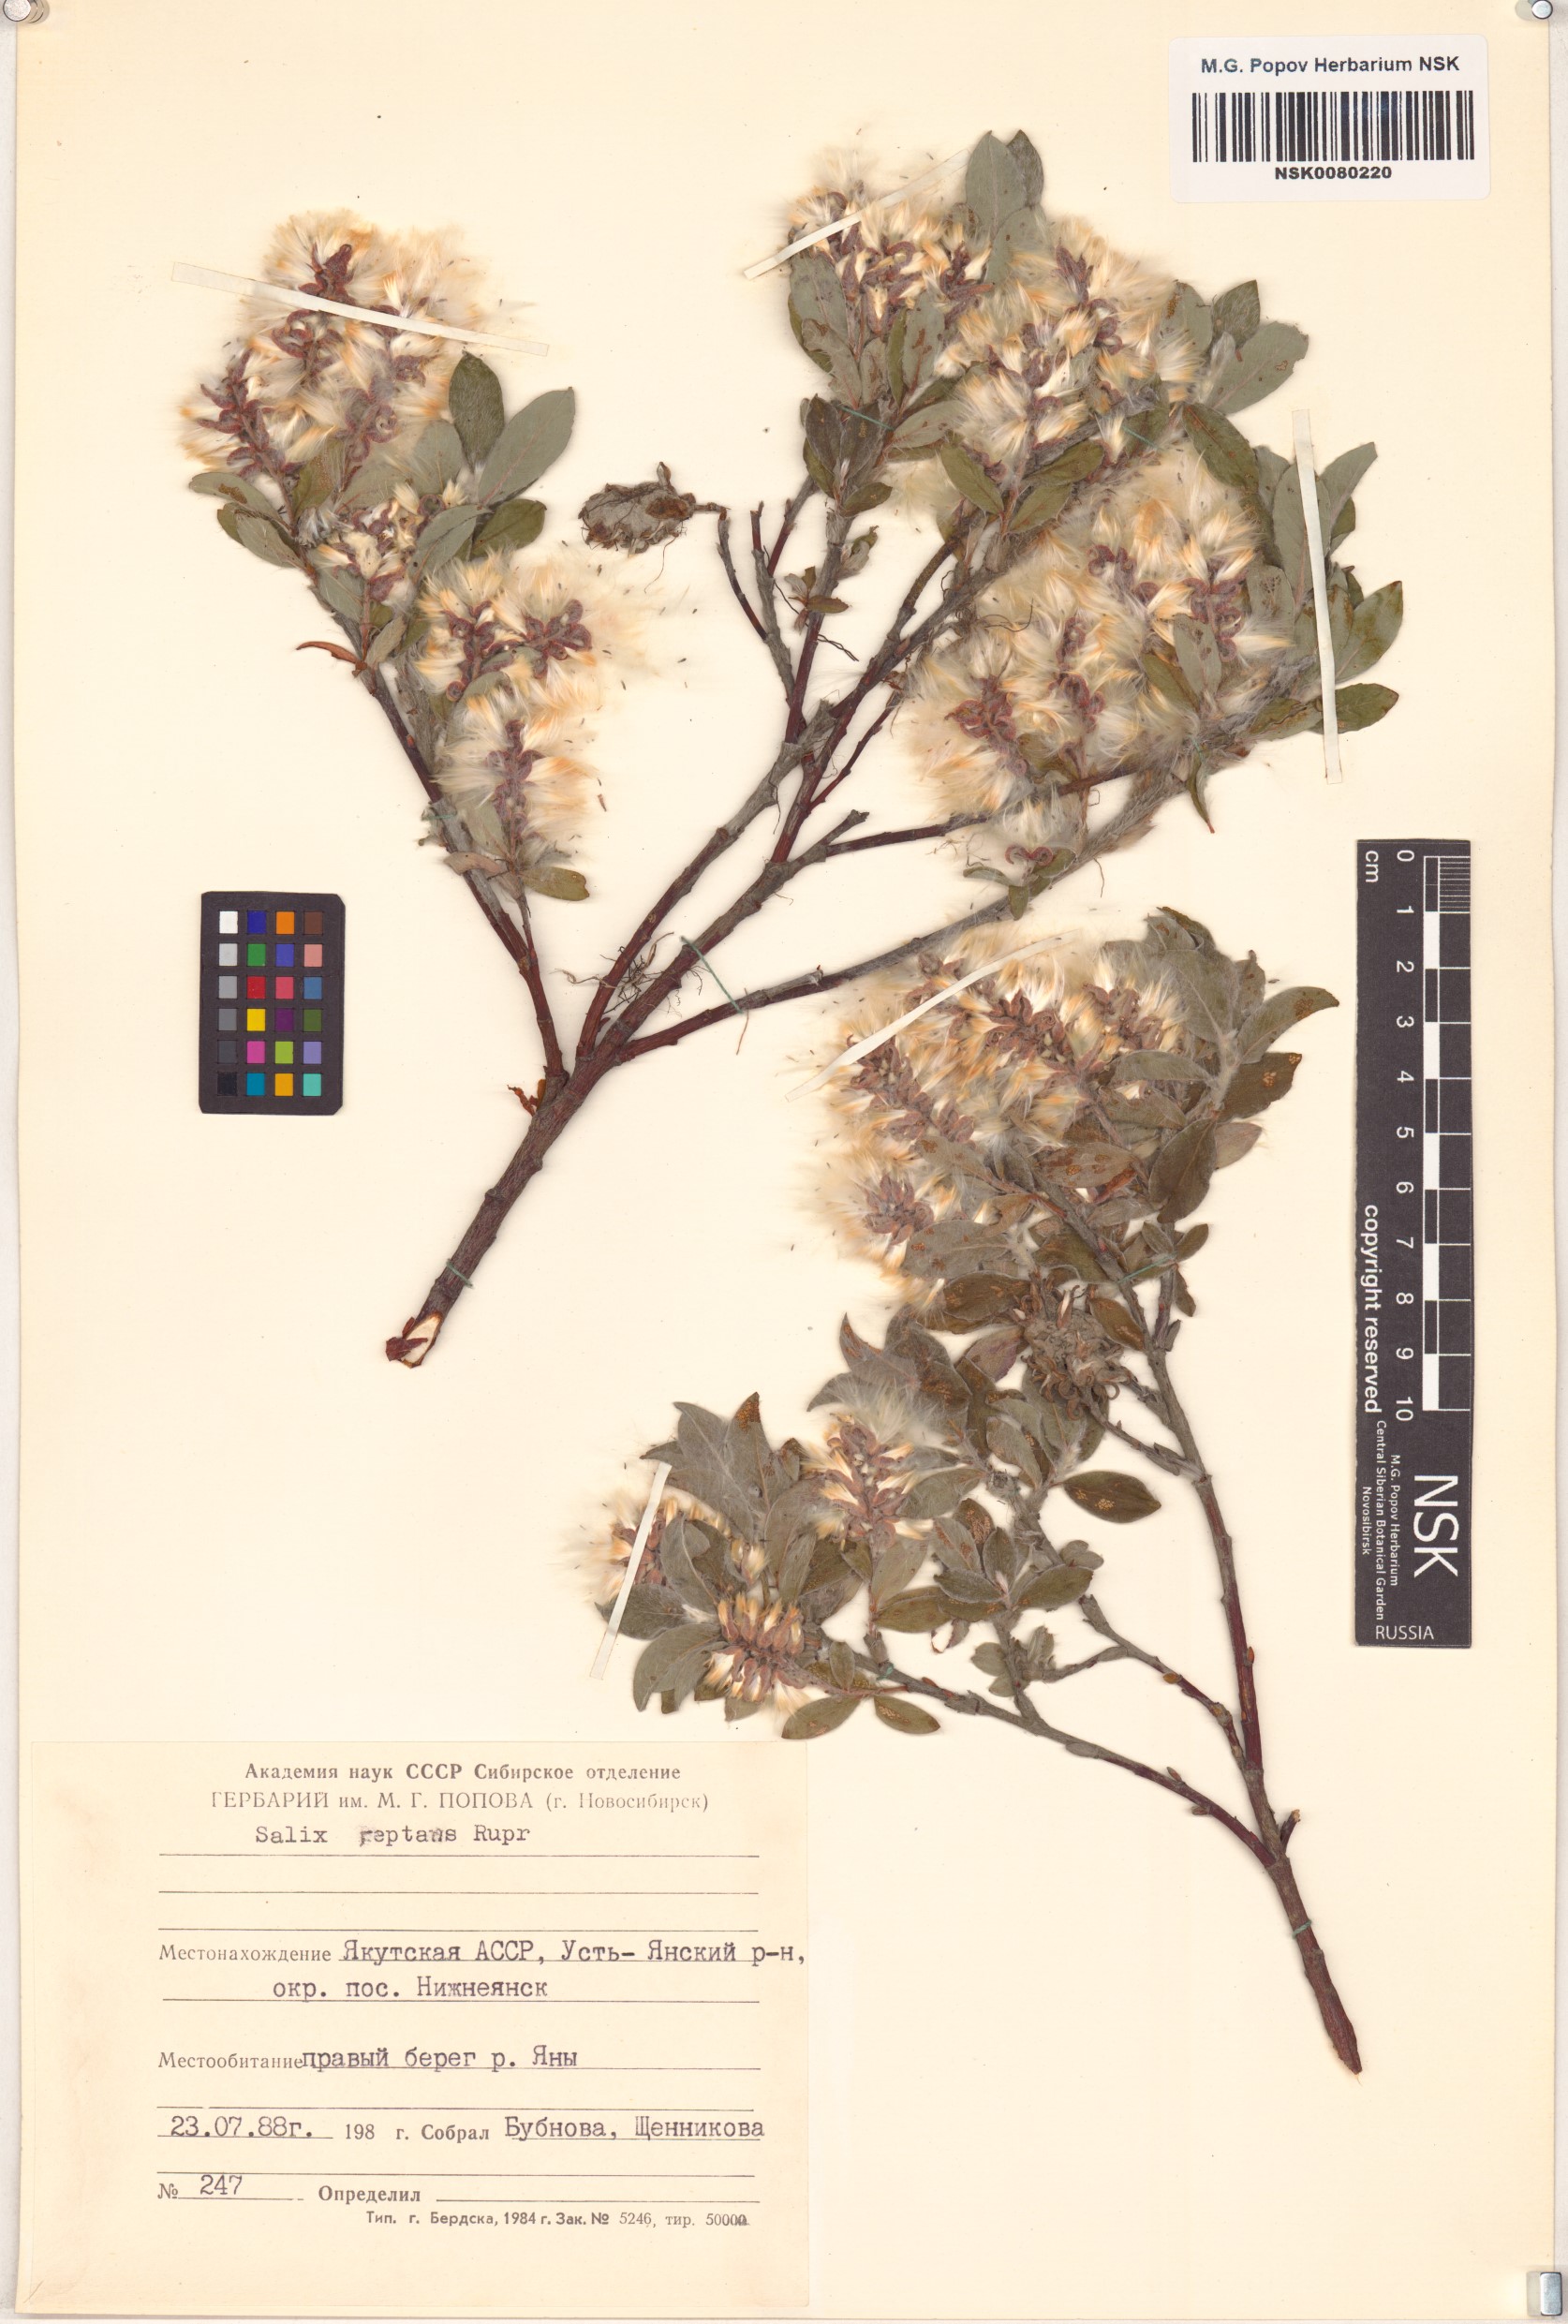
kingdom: Plantae
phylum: Tracheophyta
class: Magnoliopsida
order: Malpighiales
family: Salicaceae
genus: Salix
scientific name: Salix reptans
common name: Arctic creeping willow
